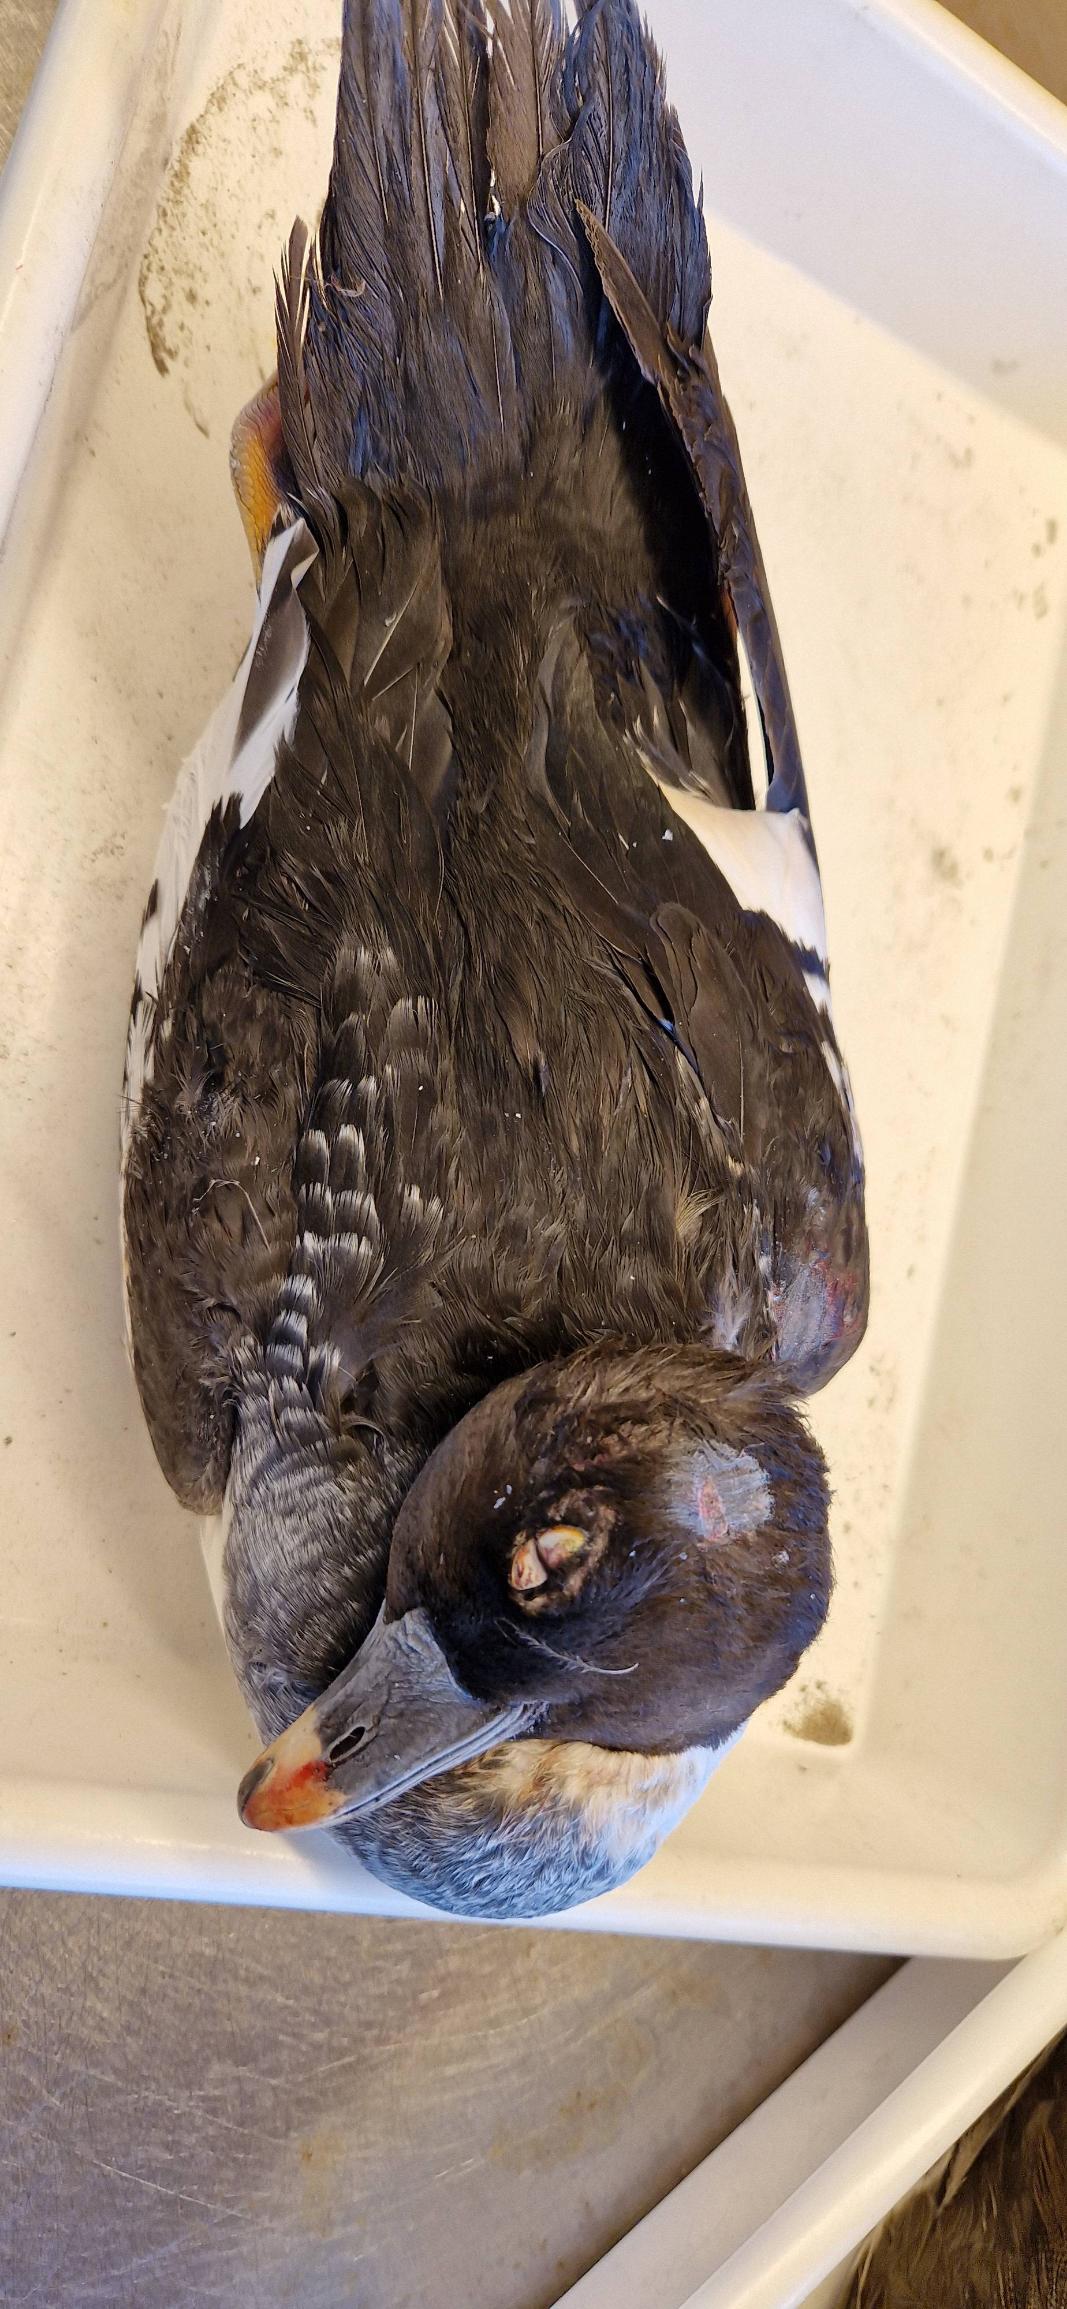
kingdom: Animalia
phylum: Chordata
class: Aves
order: Anseriformes
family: Anatidae
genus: Bucephala
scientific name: Bucephala clangula
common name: Hvinand
